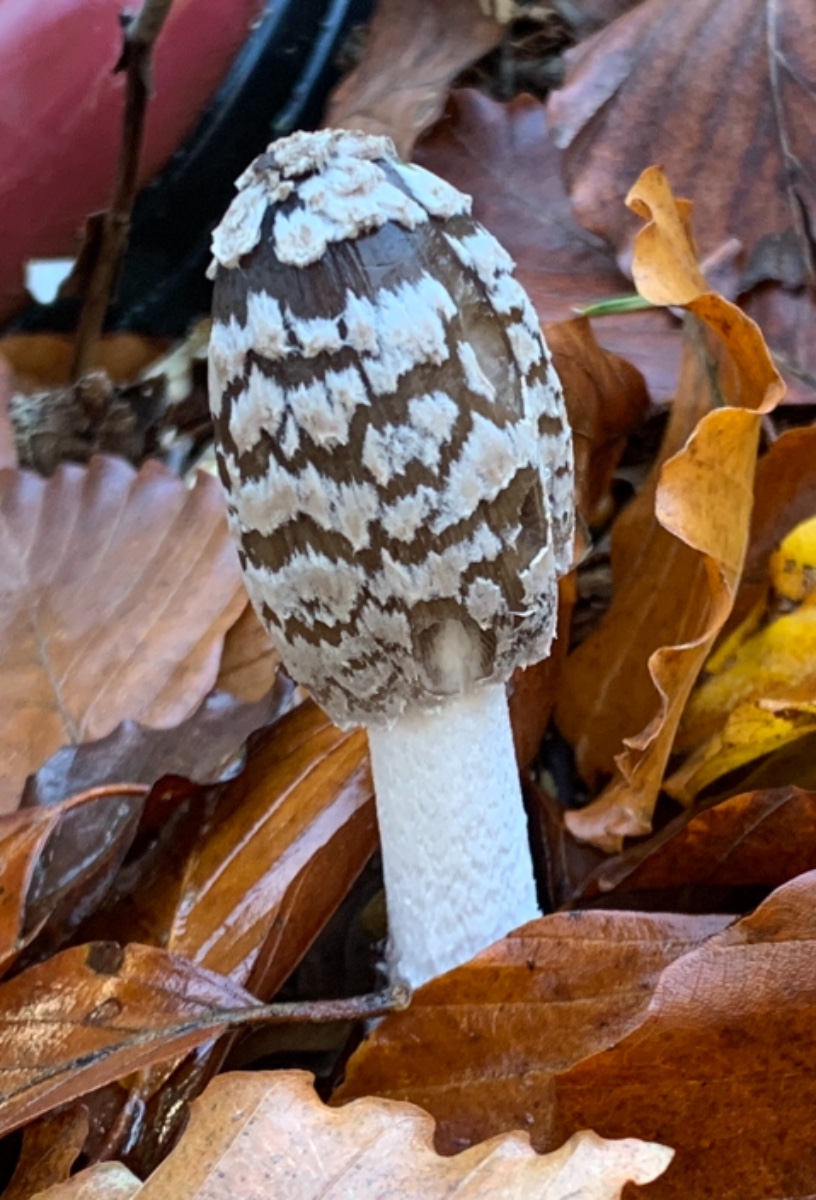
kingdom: Fungi
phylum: Basidiomycota
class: Agaricomycetes
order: Agaricales
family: Psathyrellaceae
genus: Coprinopsis
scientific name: Coprinopsis picacea
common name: skade-blækhat
